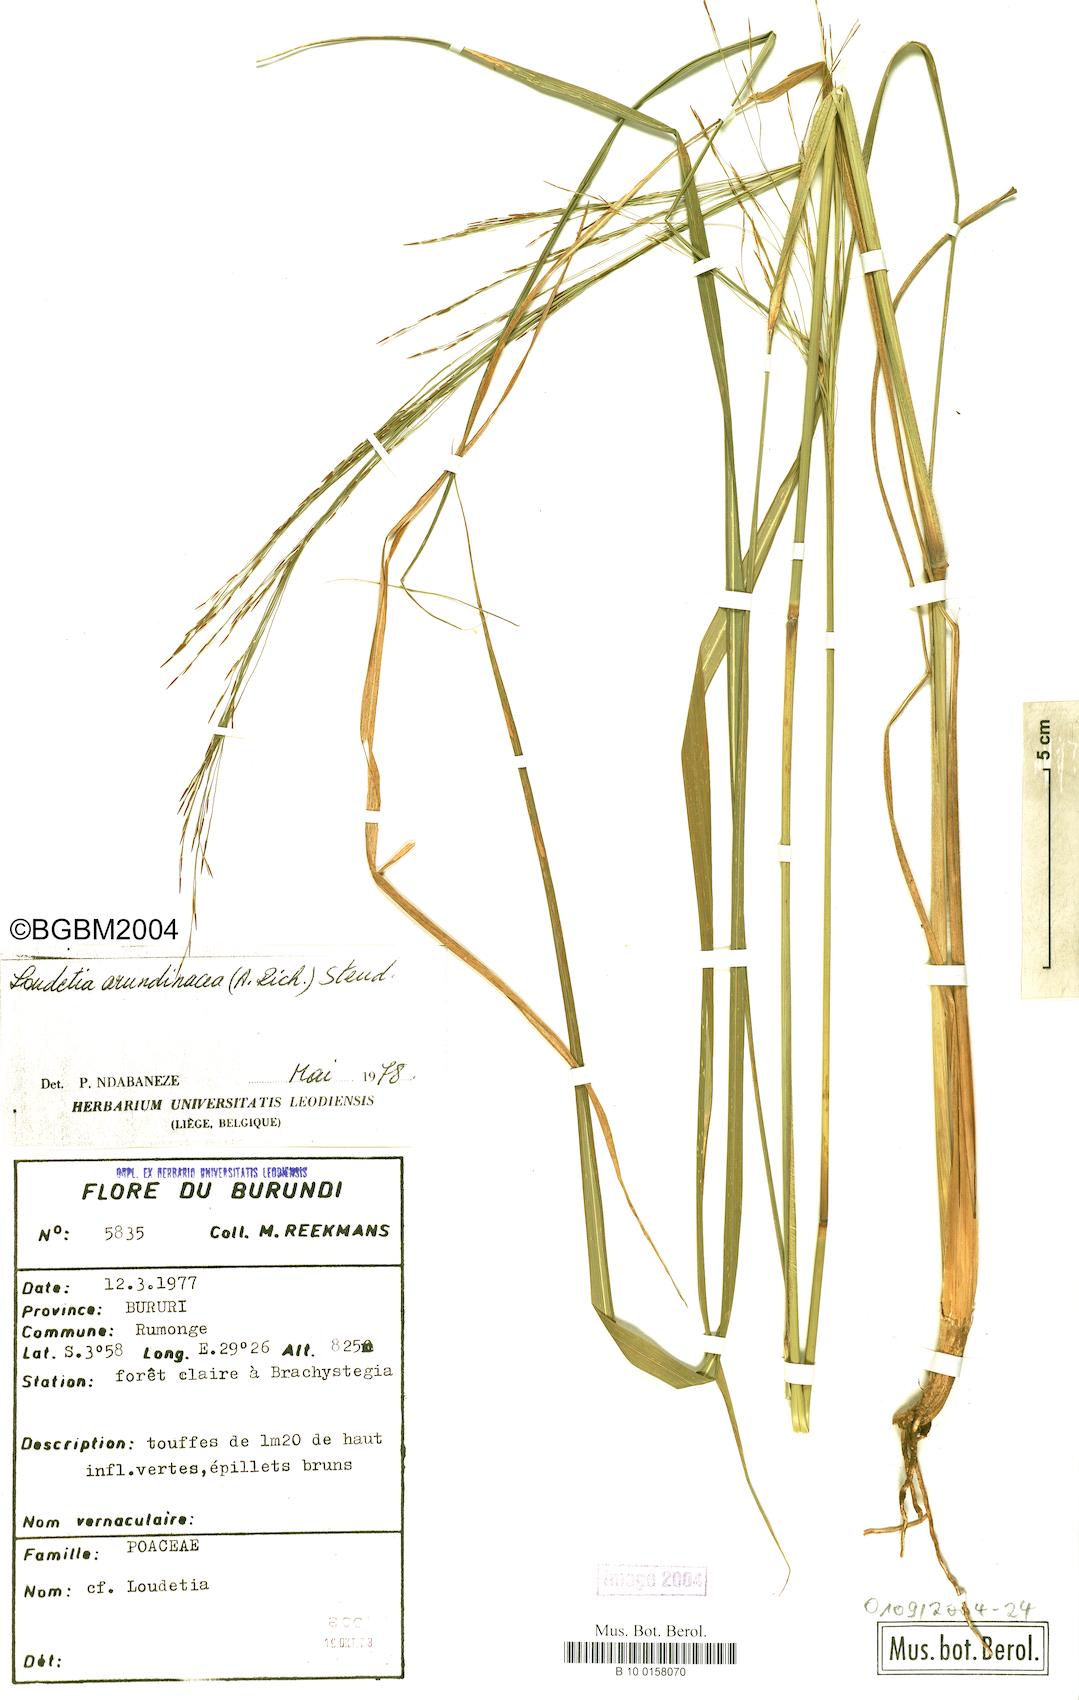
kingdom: Plantae
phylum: Tracheophyta
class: Liliopsida
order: Poales
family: Poaceae
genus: Loudetia
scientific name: Loudetia arundinacea
